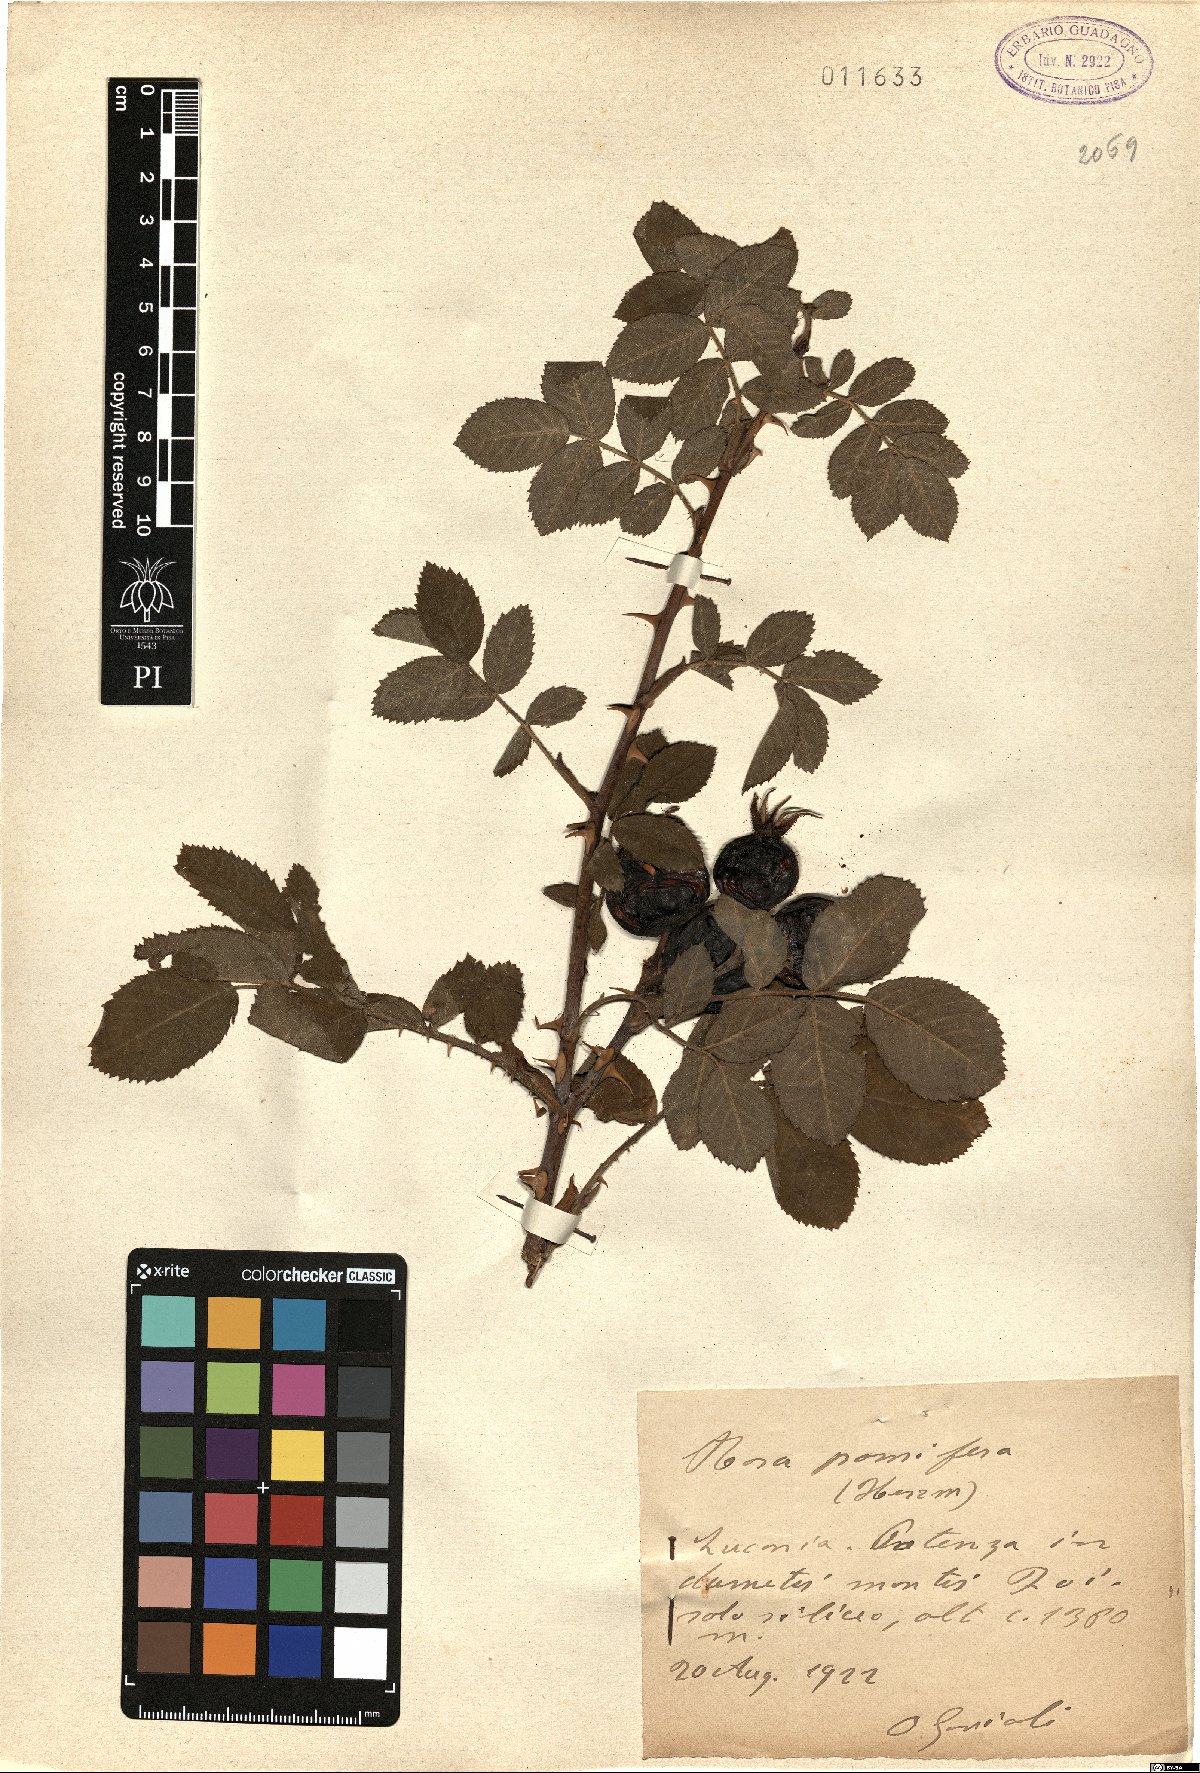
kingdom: Plantae
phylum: Tracheophyta
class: Magnoliopsida
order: Rosales
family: Rosaceae
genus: Rosa
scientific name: Rosa villosa
